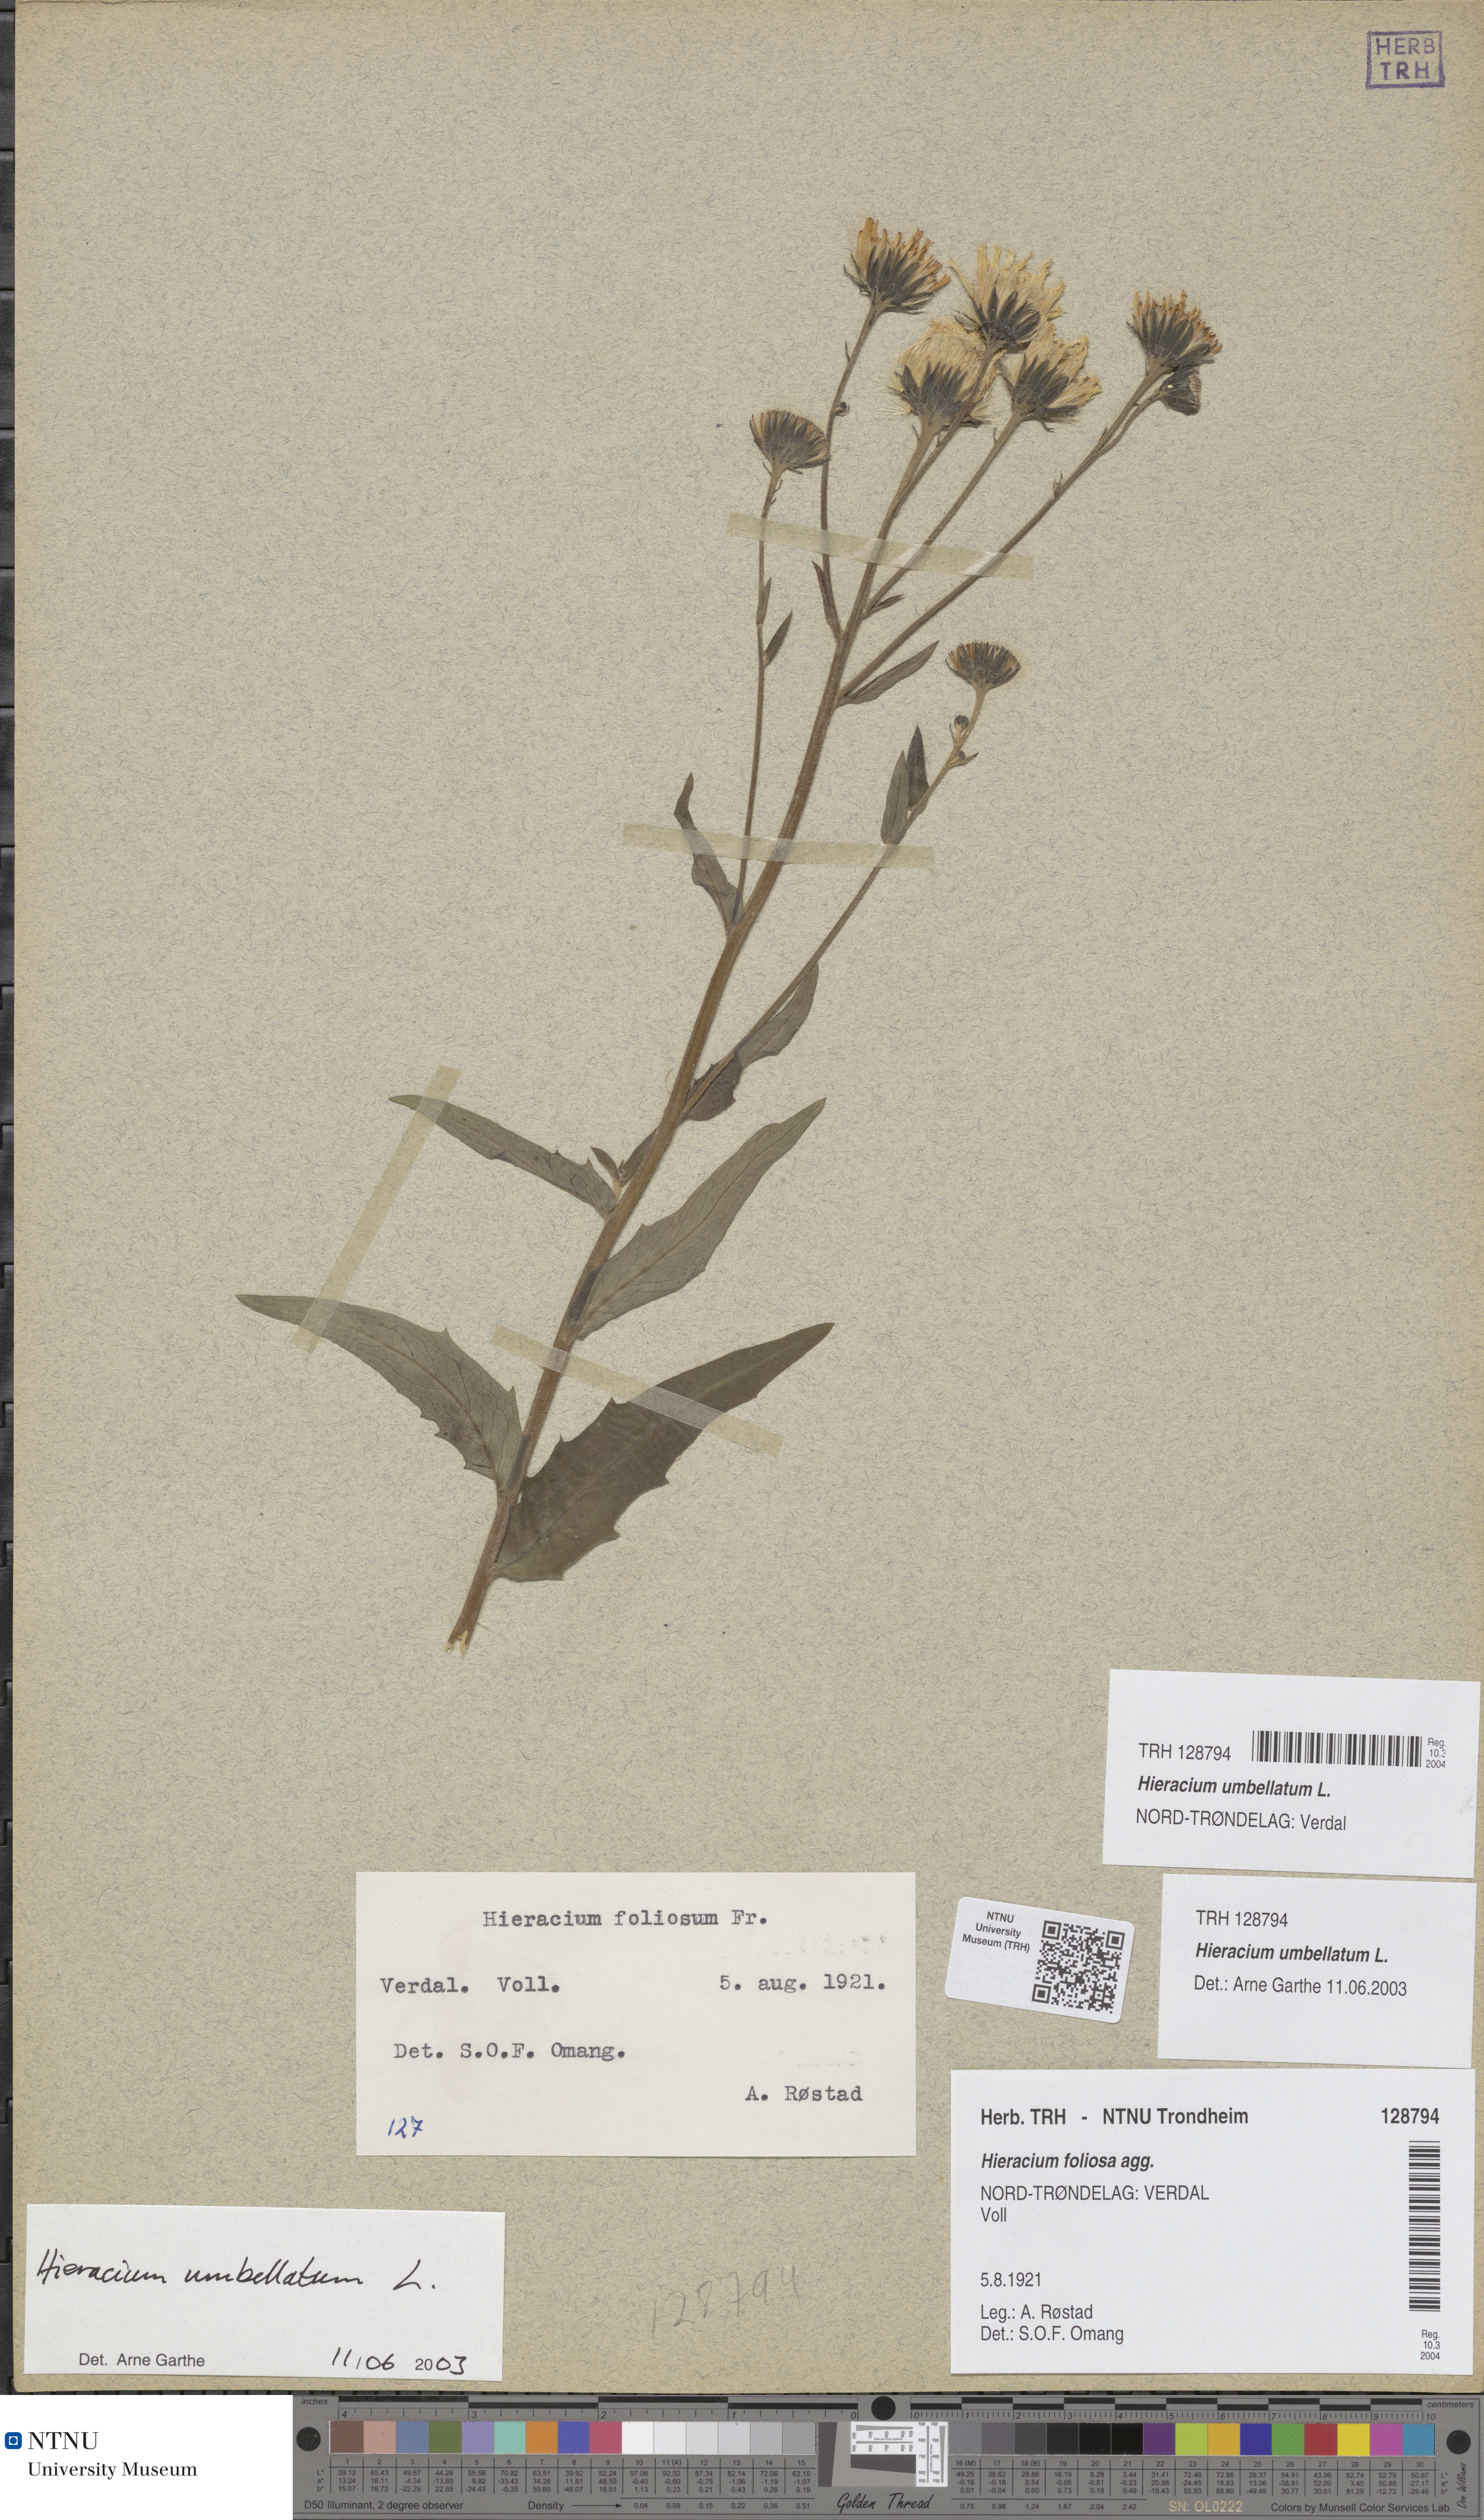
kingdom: Plantae
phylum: Tracheophyta
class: Magnoliopsida
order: Asterales
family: Asteraceae
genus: Hieracium
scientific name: Hieracium umbellatum
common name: Northern hawkweed
